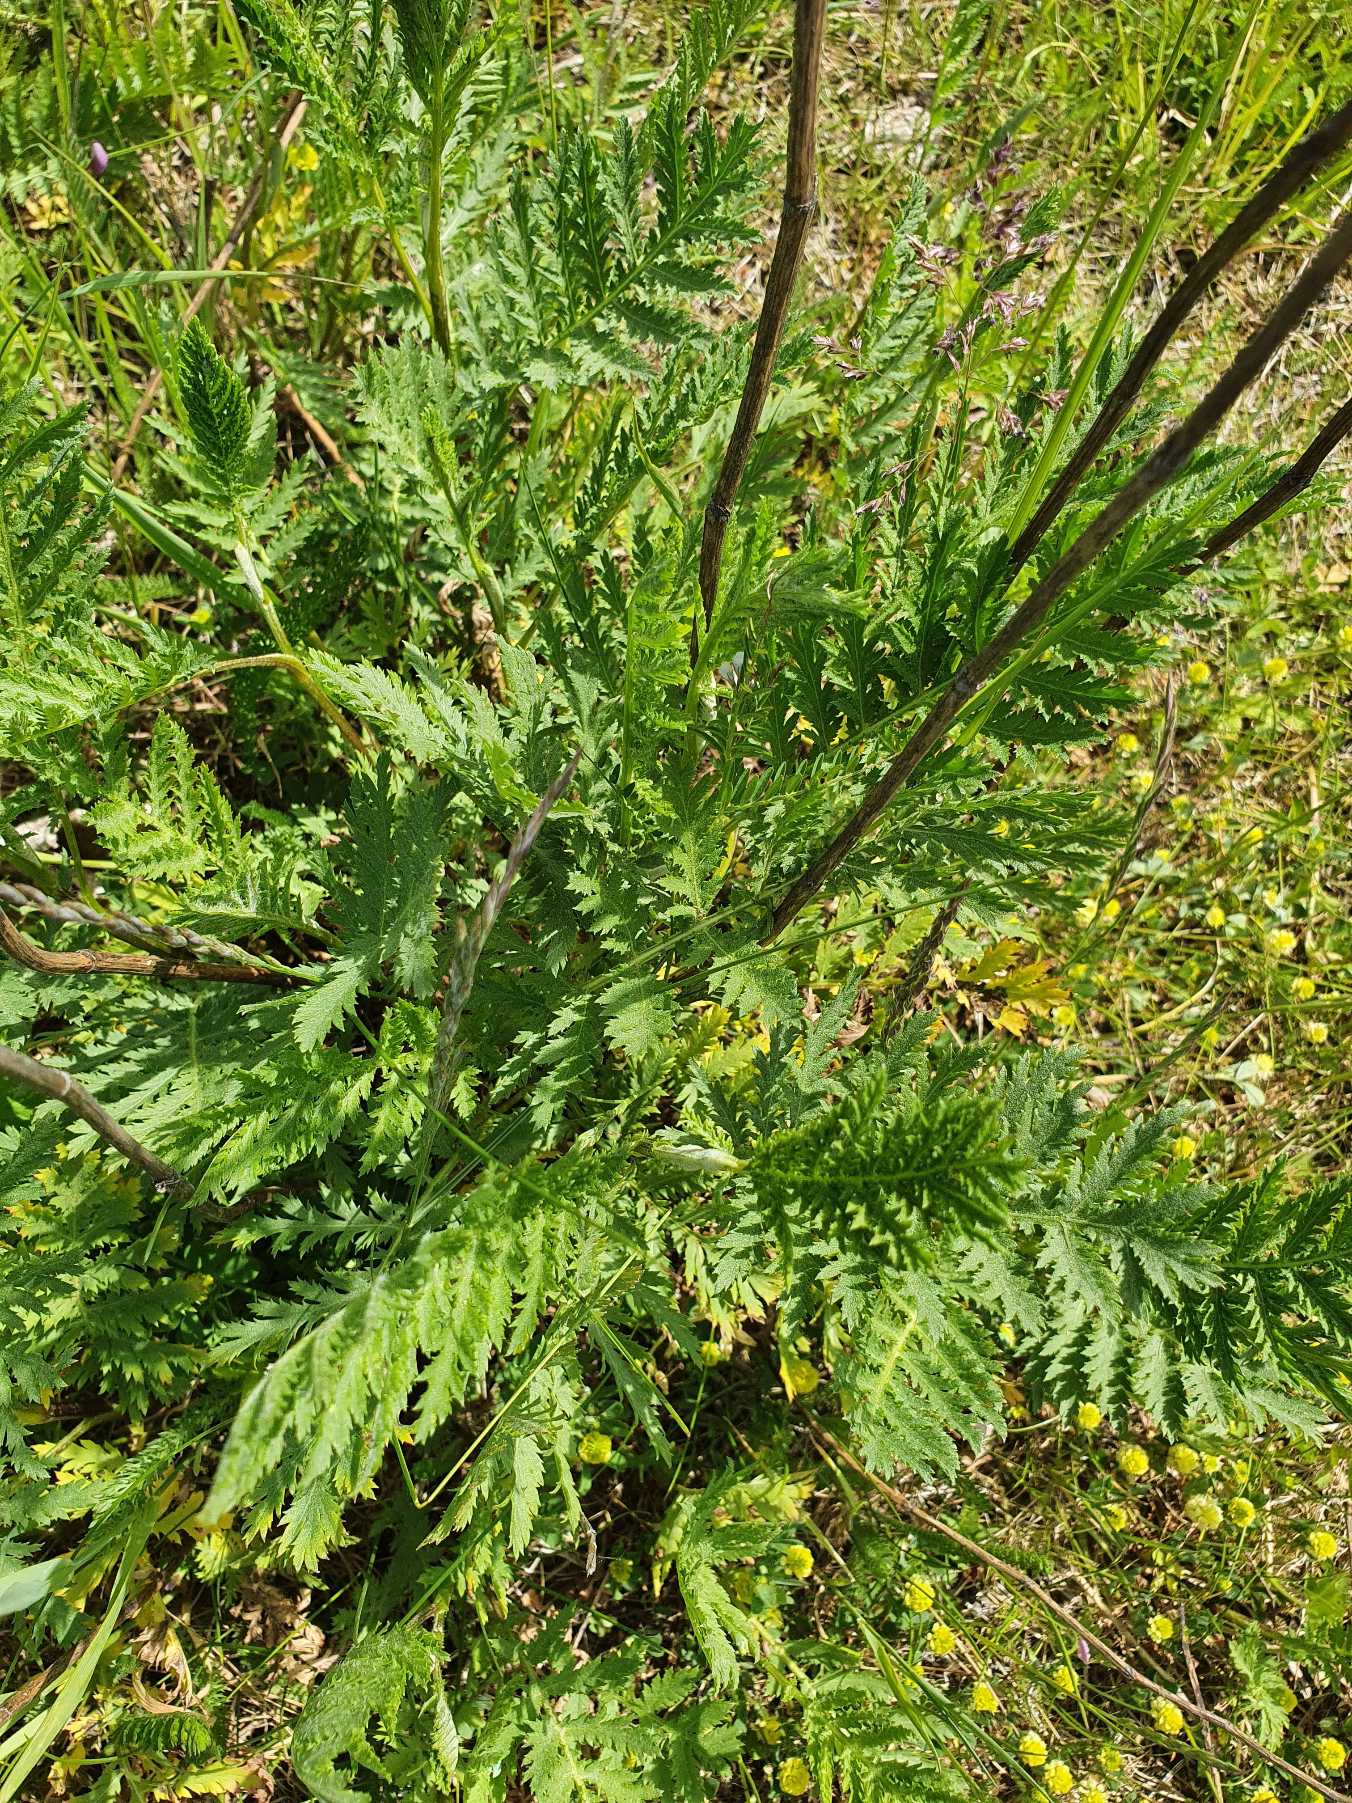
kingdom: Plantae
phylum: Tracheophyta
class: Magnoliopsida
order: Asterales
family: Asteraceae
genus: Tanacetum
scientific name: Tanacetum vulgare
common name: Rejnfan
